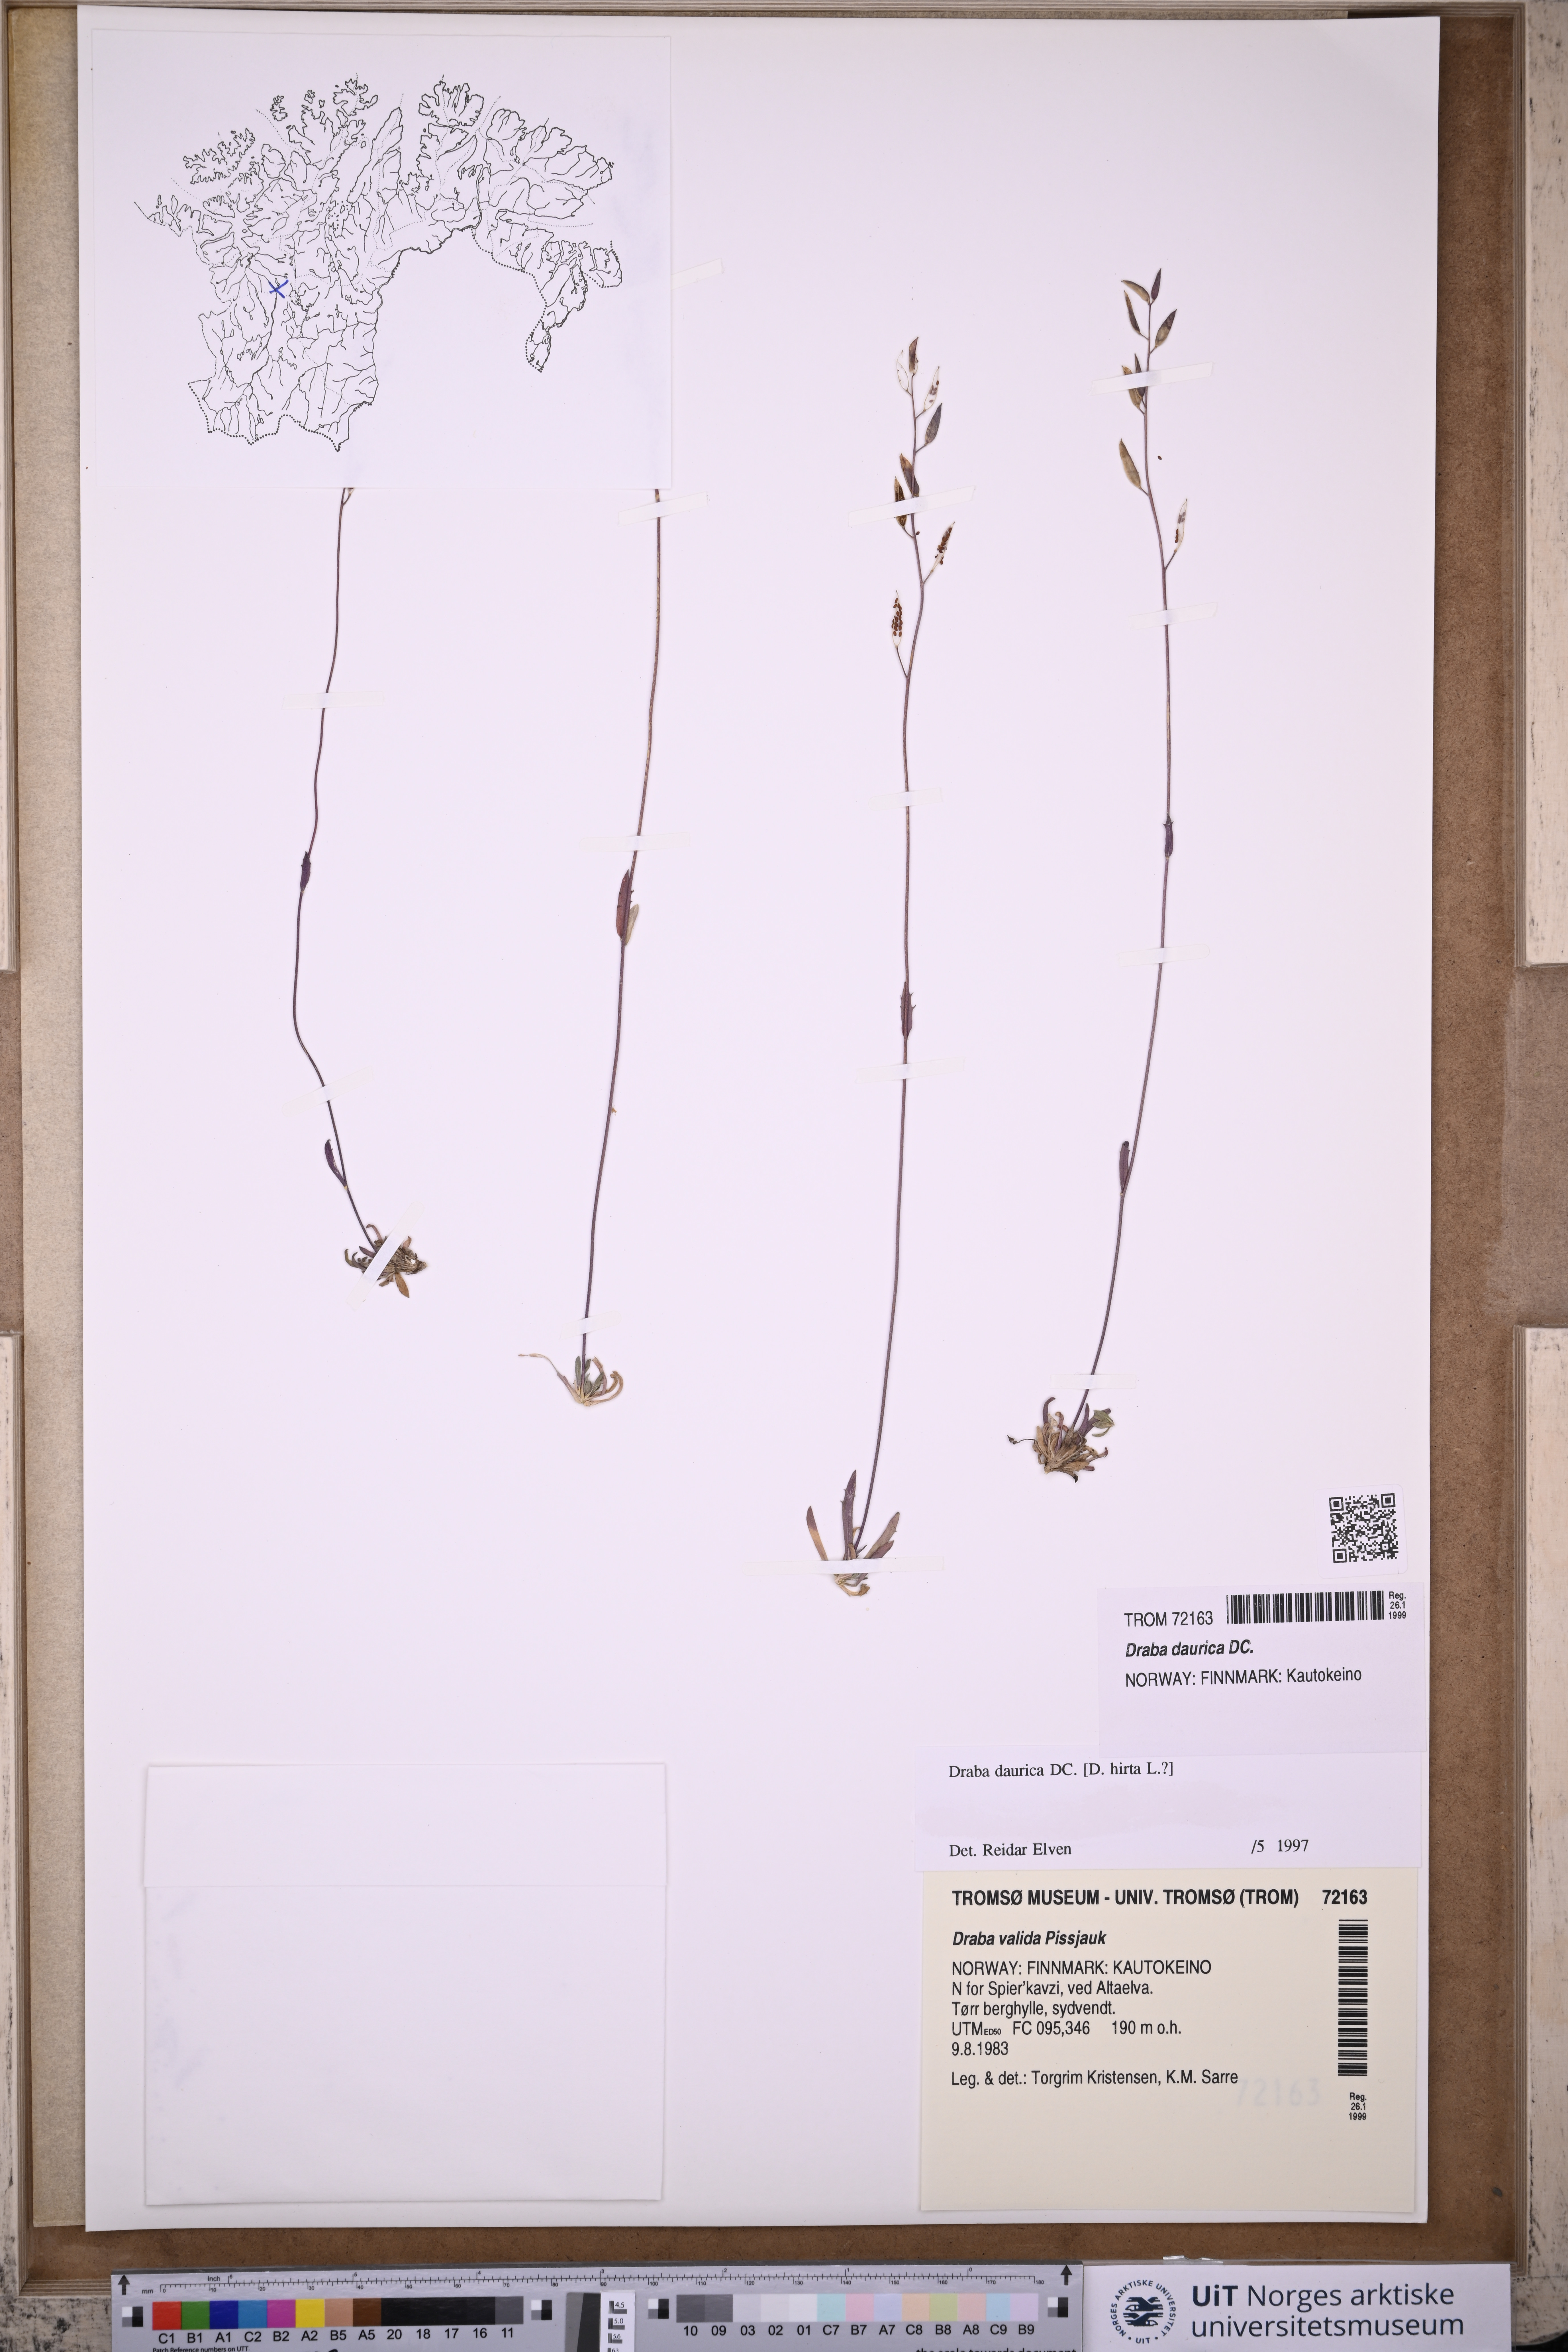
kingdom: Plantae
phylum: Tracheophyta
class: Magnoliopsida
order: Brassicales
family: Brassicaceae
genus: Draba
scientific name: Draba glabella
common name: Glaucous draba
